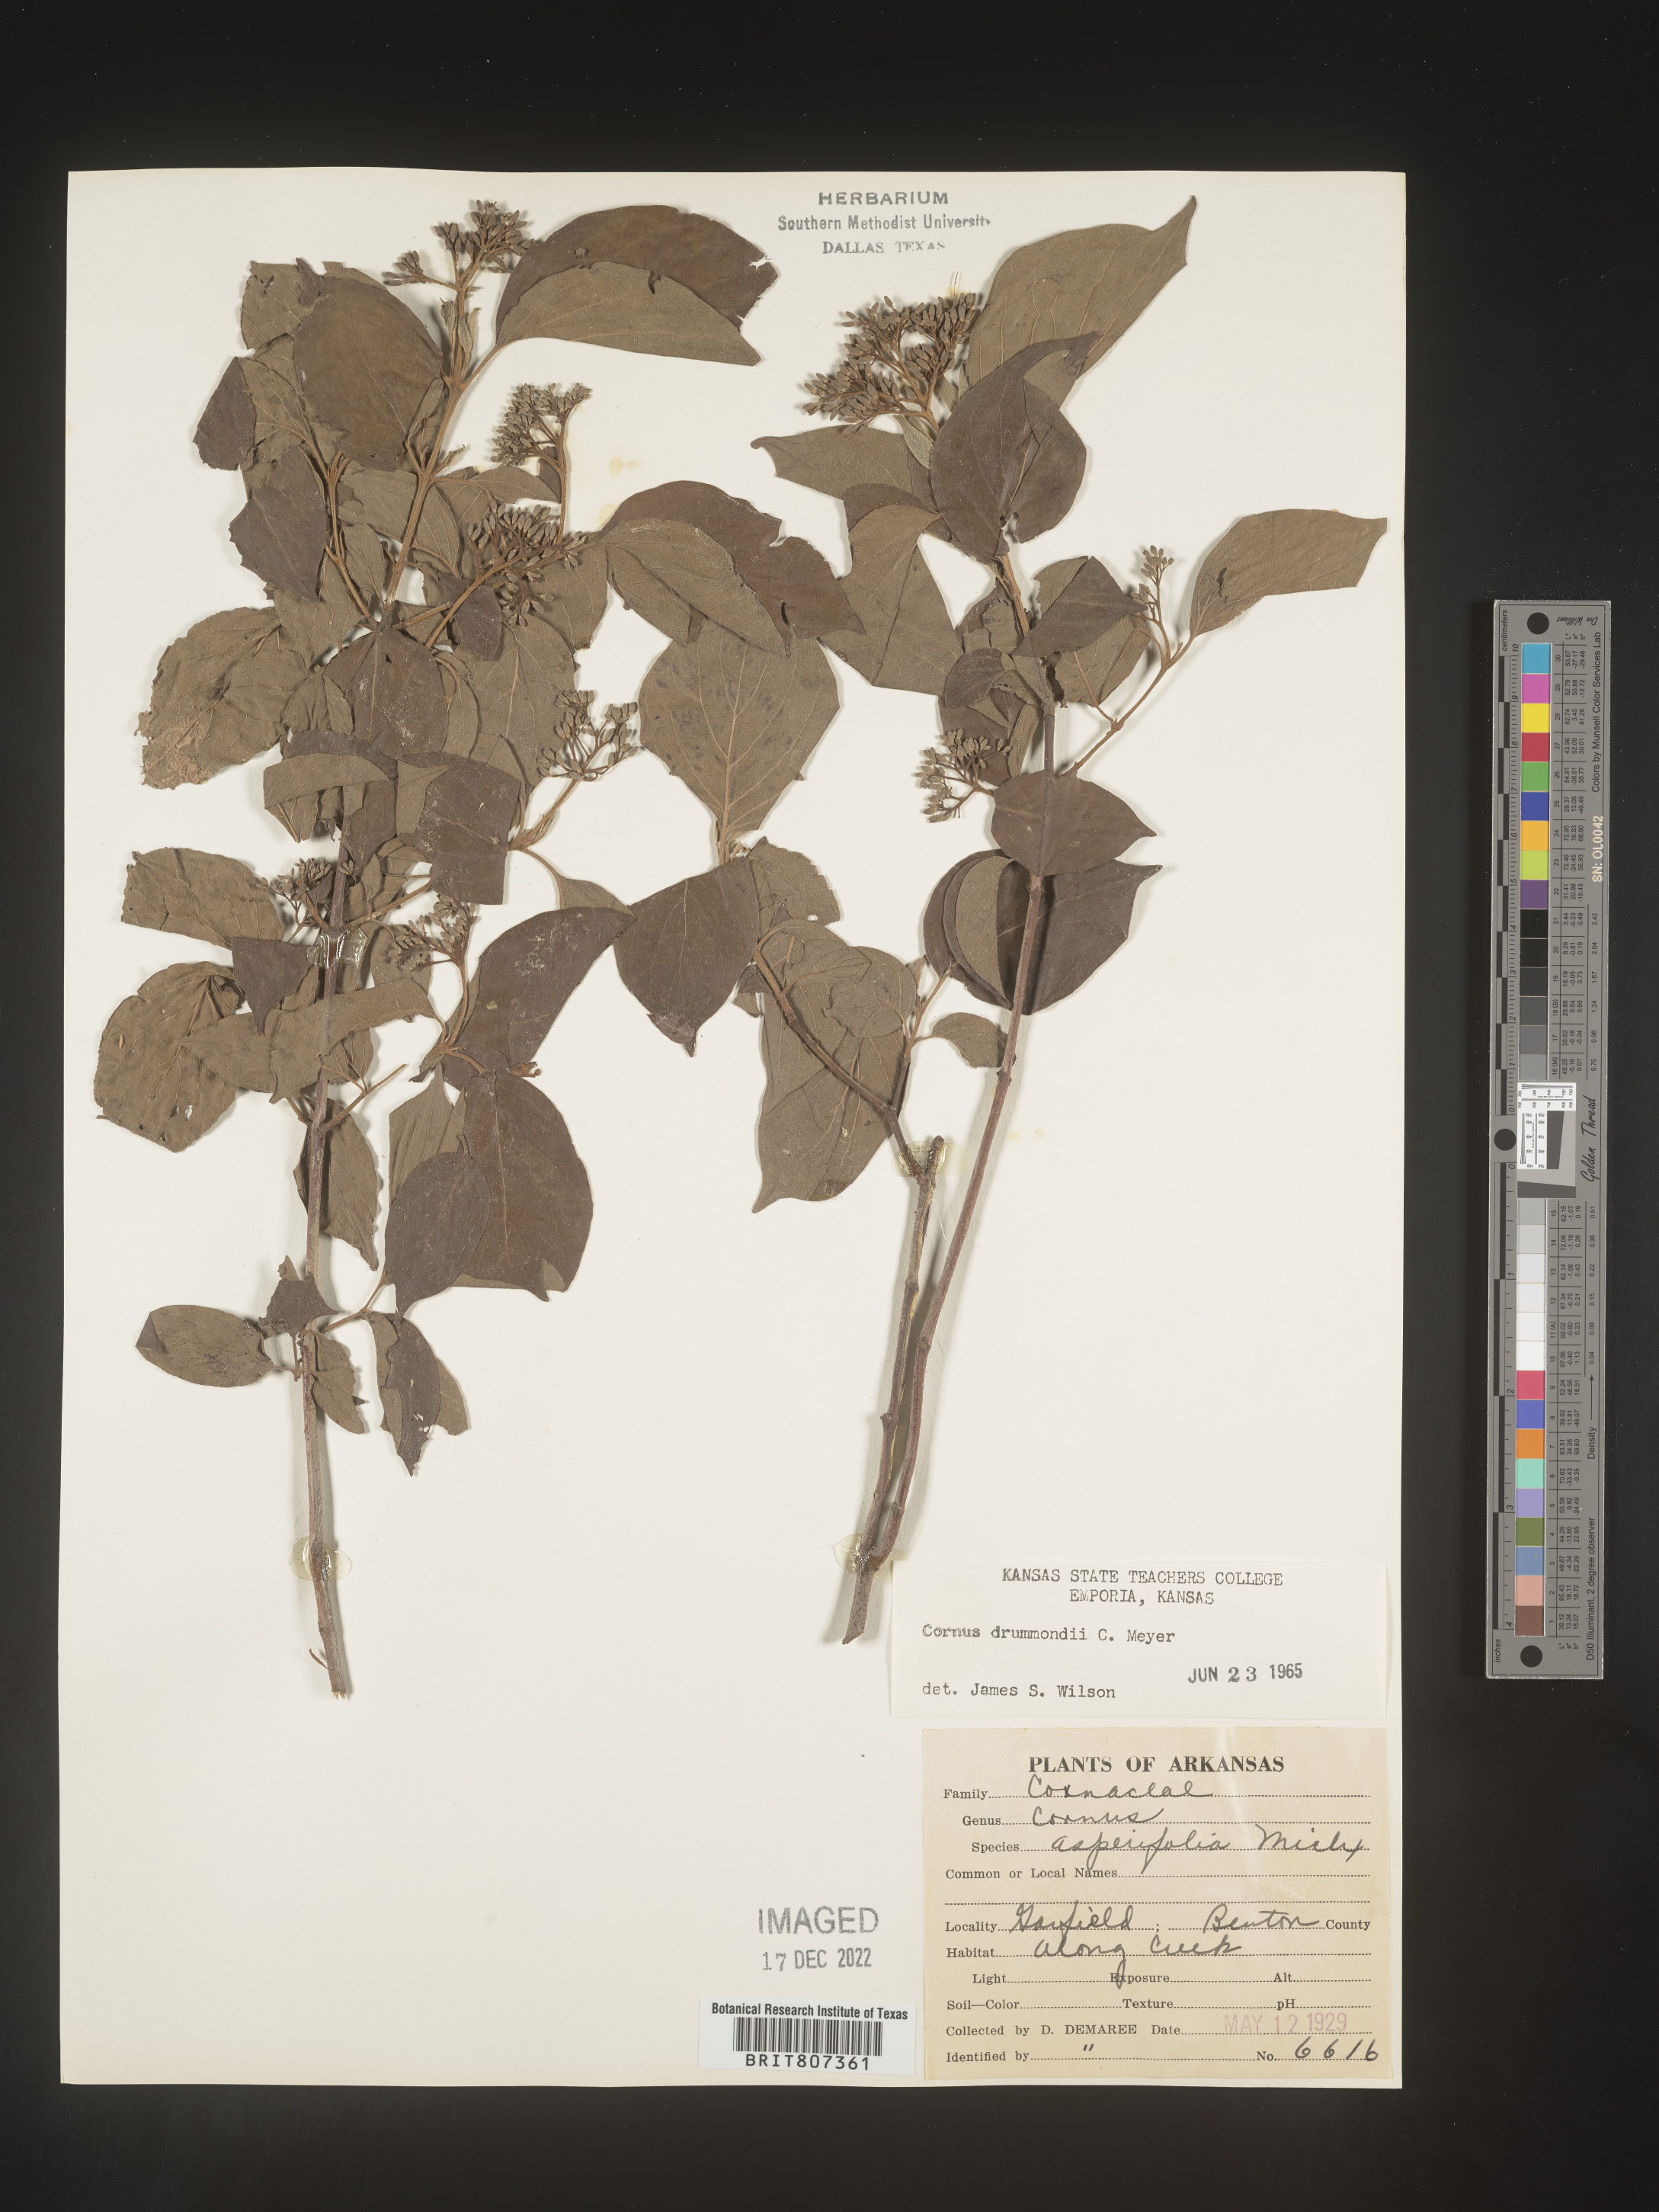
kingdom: Plantae
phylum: Tracheophyta
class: Magnoliopsida
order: Cornales
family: Cornaceae
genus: Cornus
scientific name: Cornus drummondii
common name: Rough-leaf dogwood
